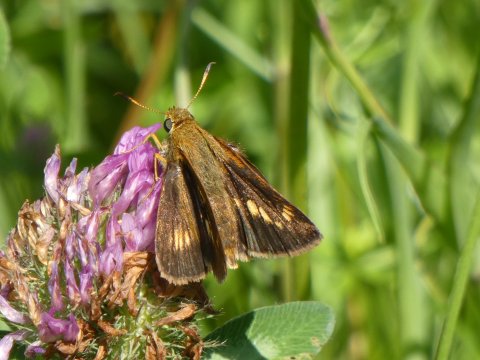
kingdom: Animalia
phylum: Arthropoda
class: Insecta
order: Lepidoptera
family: Hesperiidae
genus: Polites
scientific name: Polites
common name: Long Dash Skipper
